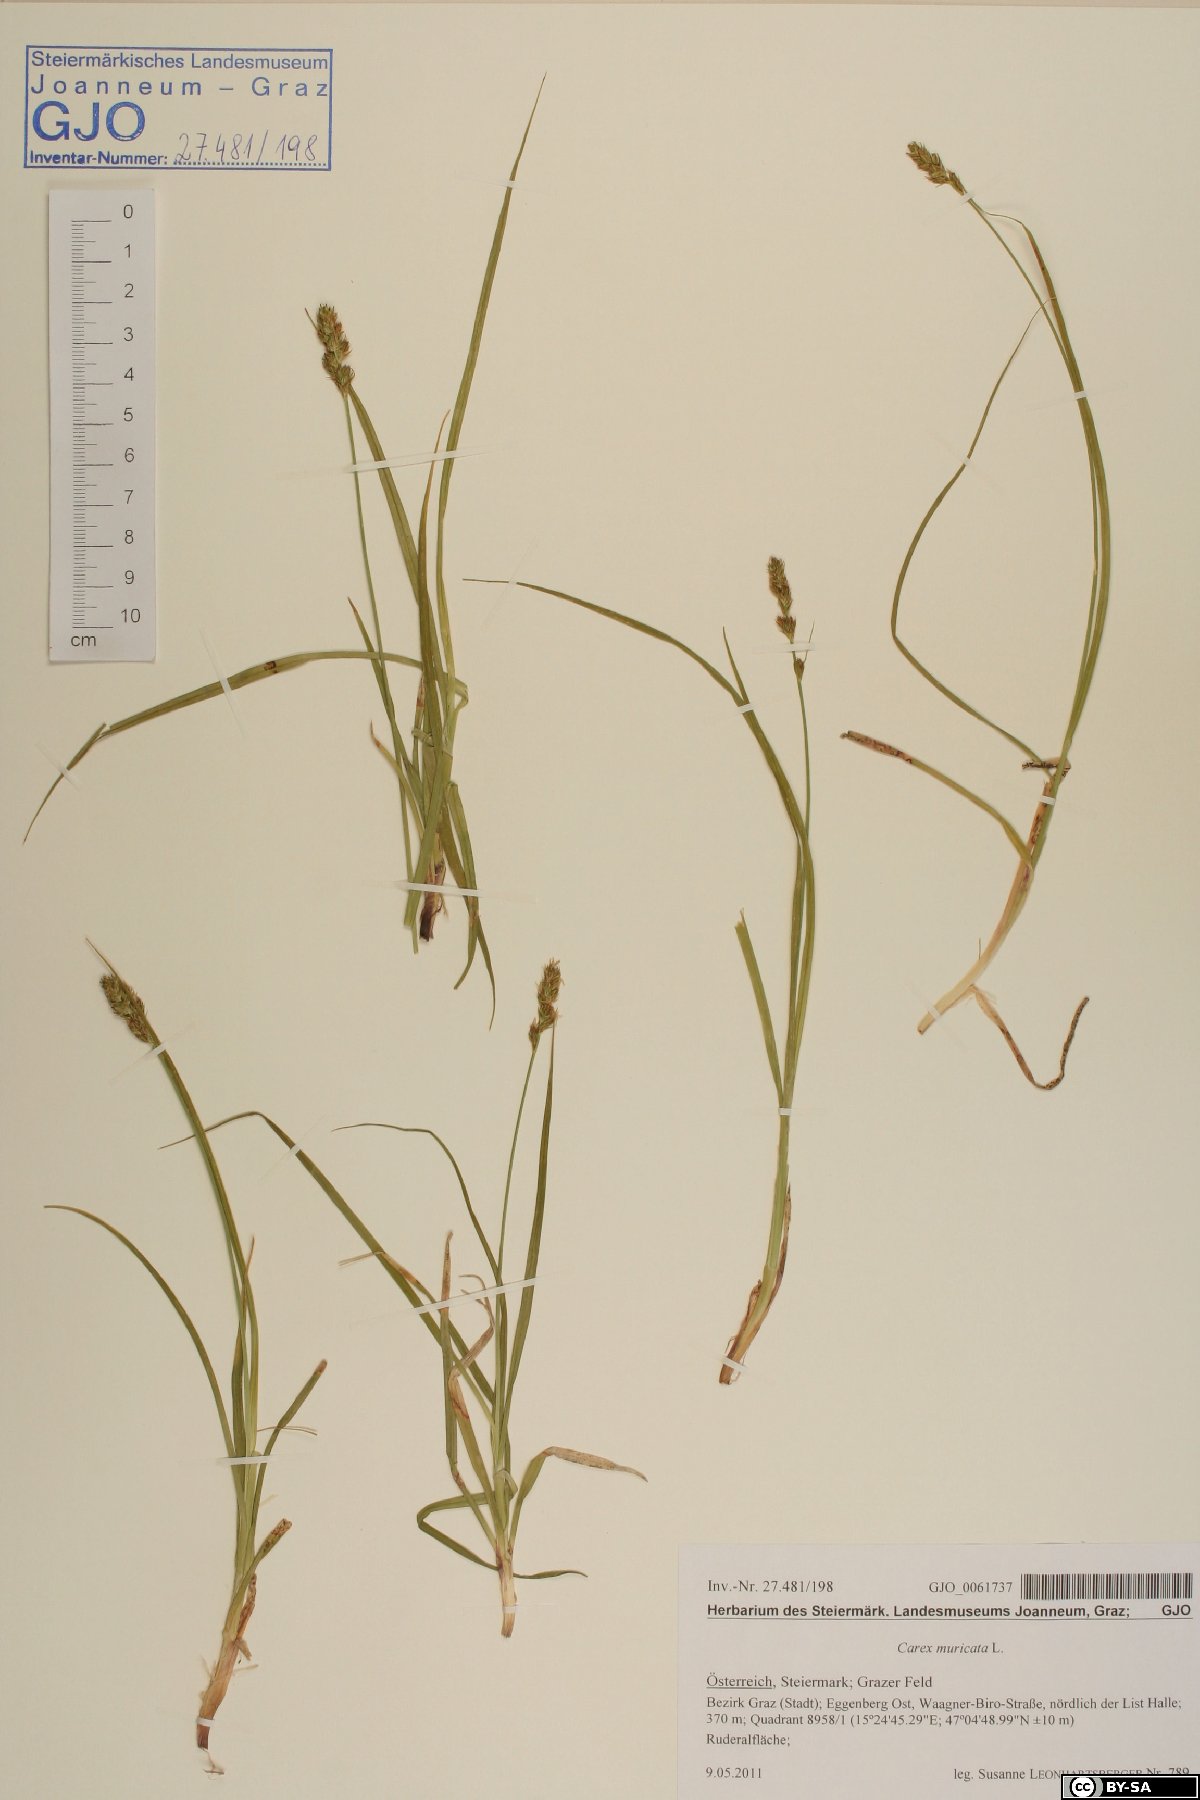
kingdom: Plantae
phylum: Tracheophyta
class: Liliopsida
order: Poales
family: Cyperaceae
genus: Carex
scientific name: Carex muricata
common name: Rough sedge
